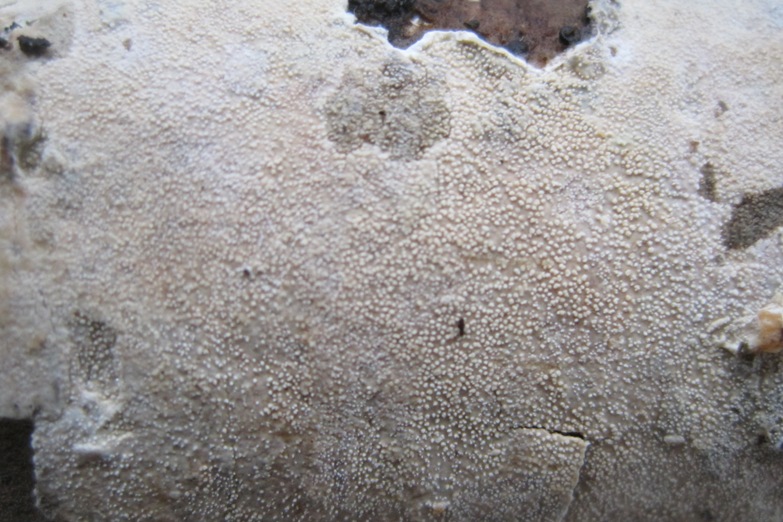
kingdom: Fungi
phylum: Basidiomycota
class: Agaricomycetes
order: Corticiales
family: Corticiaceae
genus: Lyomyces
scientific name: Lyomyces crustosus
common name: vortet hyldehinde
